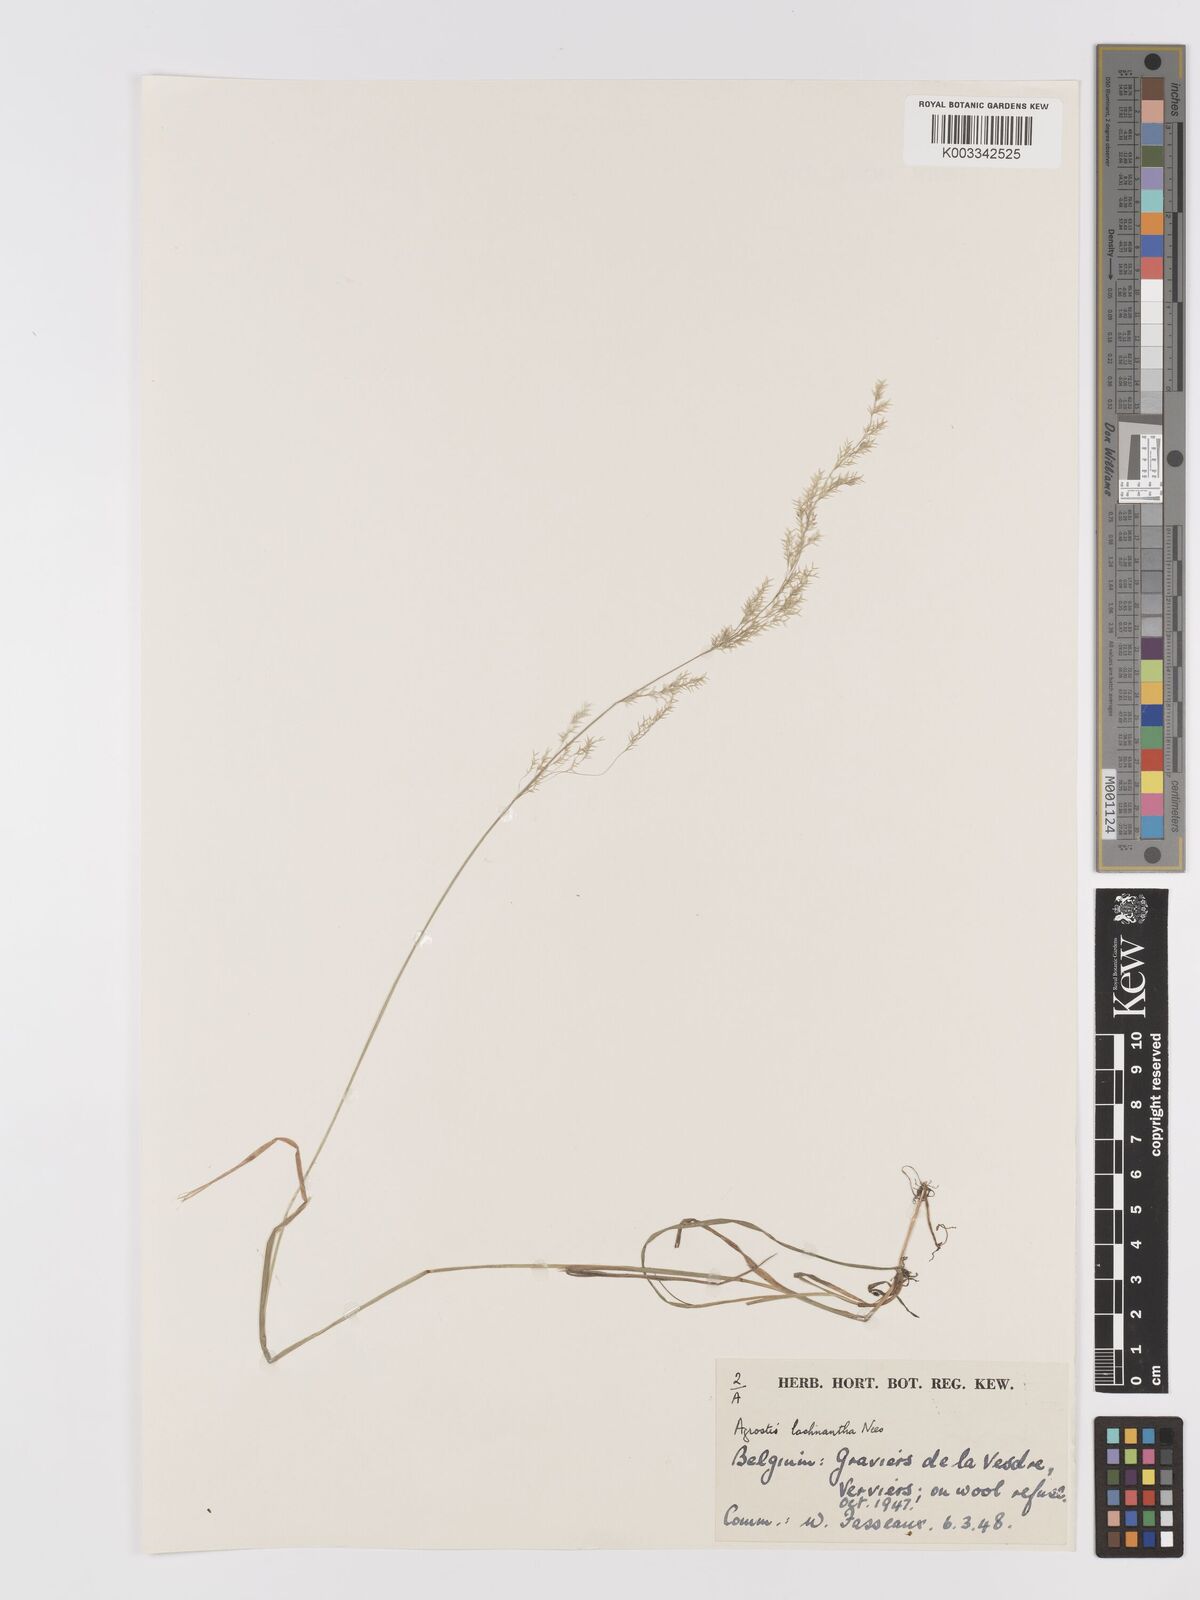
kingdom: Plantae
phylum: Tracheophyta
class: Liliopsida
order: Poales
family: Poaceae
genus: Lachnagrostis
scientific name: Lachnagrostis lachnantha
